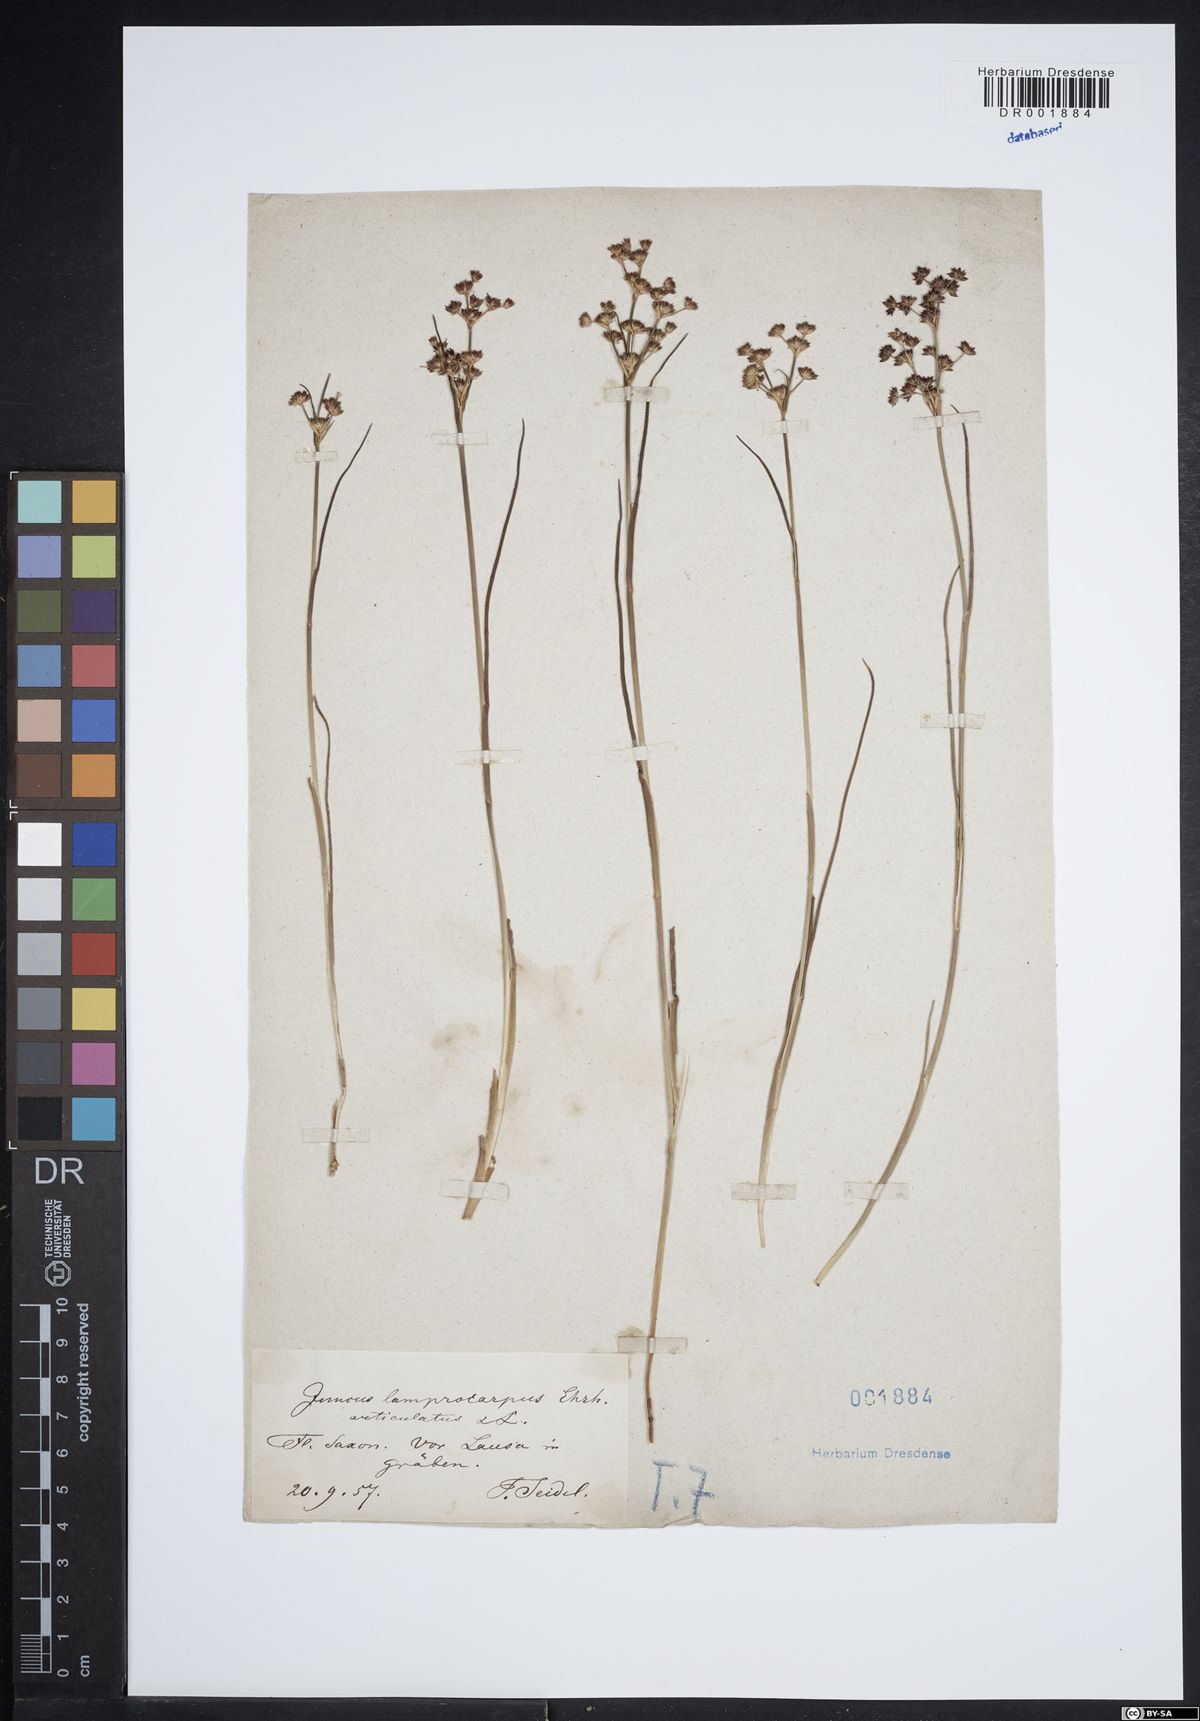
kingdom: Plantae
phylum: Tracheophyta
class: Liliopsida
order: Poales
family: Juncaceae
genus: Juncus
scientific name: Juncus articulatus
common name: Jointed rush
